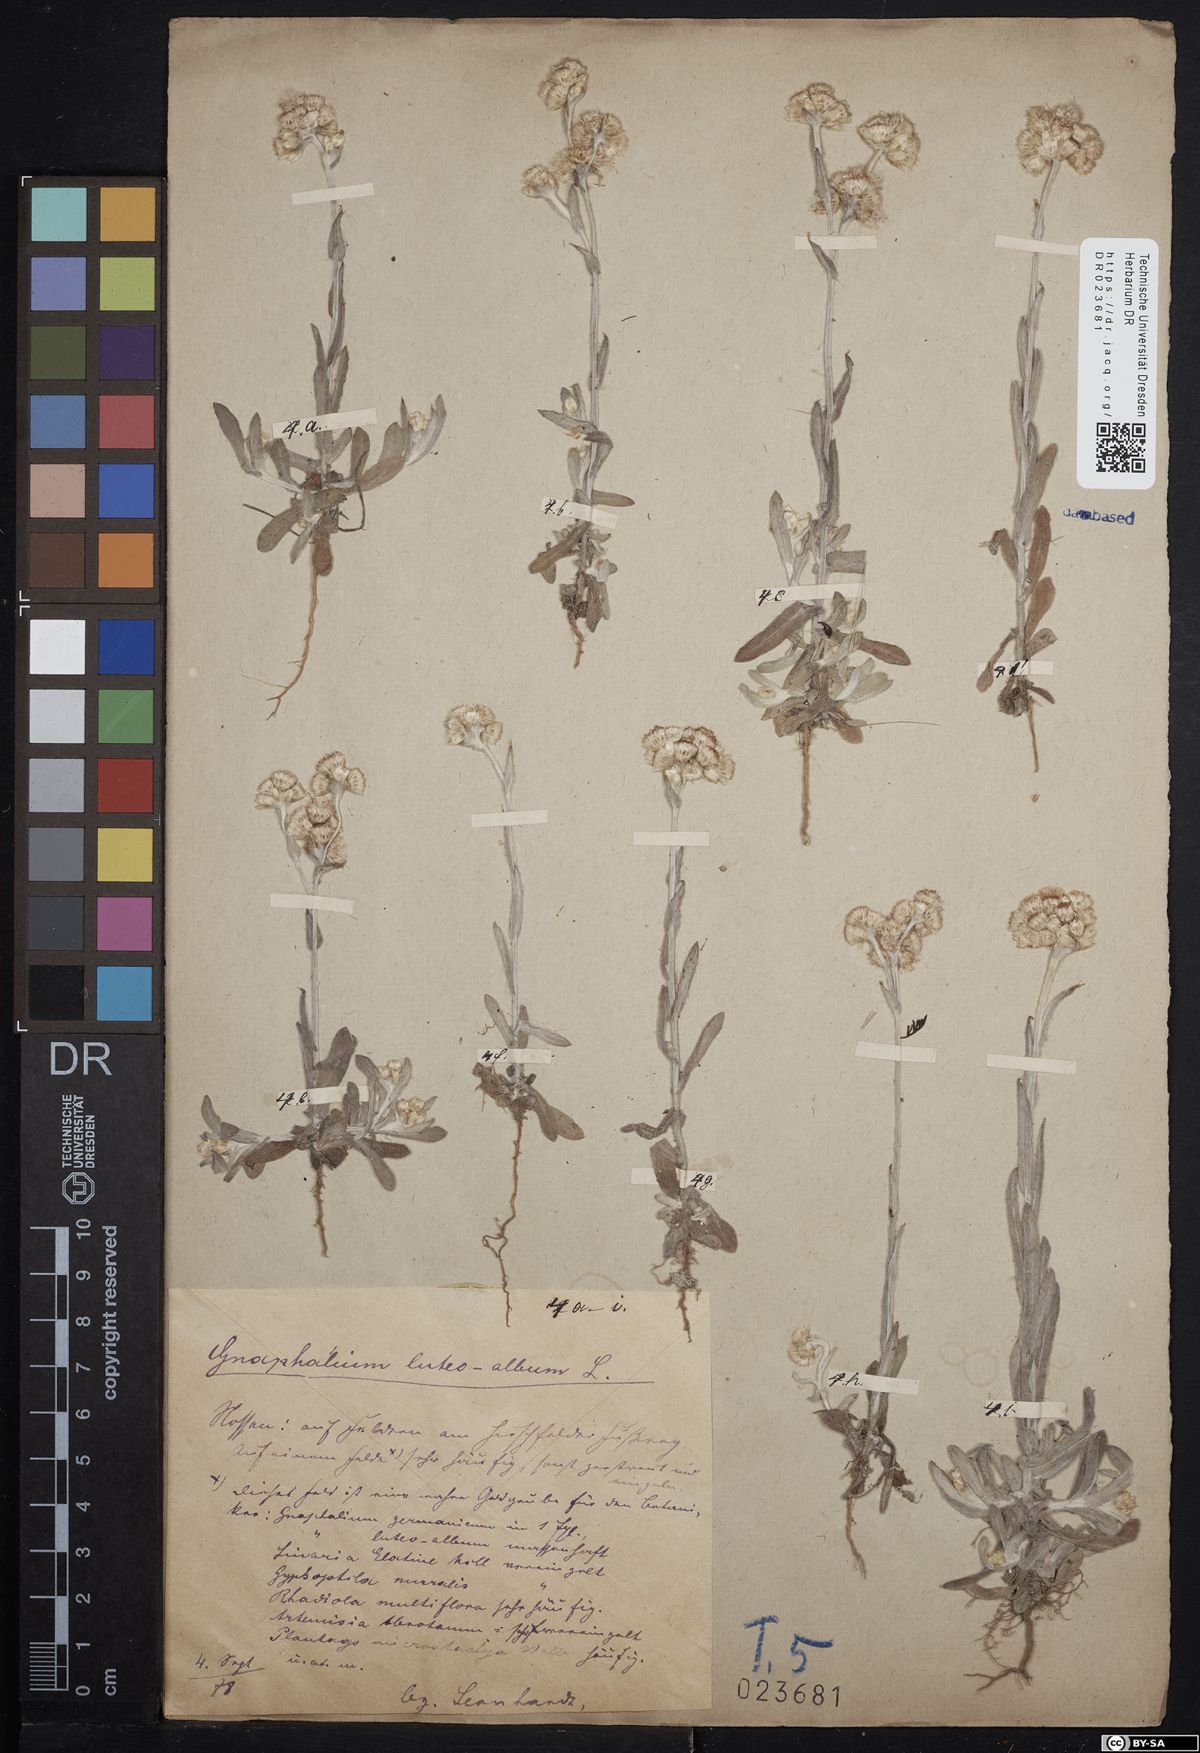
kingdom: Plantae
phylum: Tracheophyta
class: Magnoliopsida
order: Asterales
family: Asteraceae
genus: Helichrysum
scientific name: Helichrysum luteoalbum
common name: Daisy
